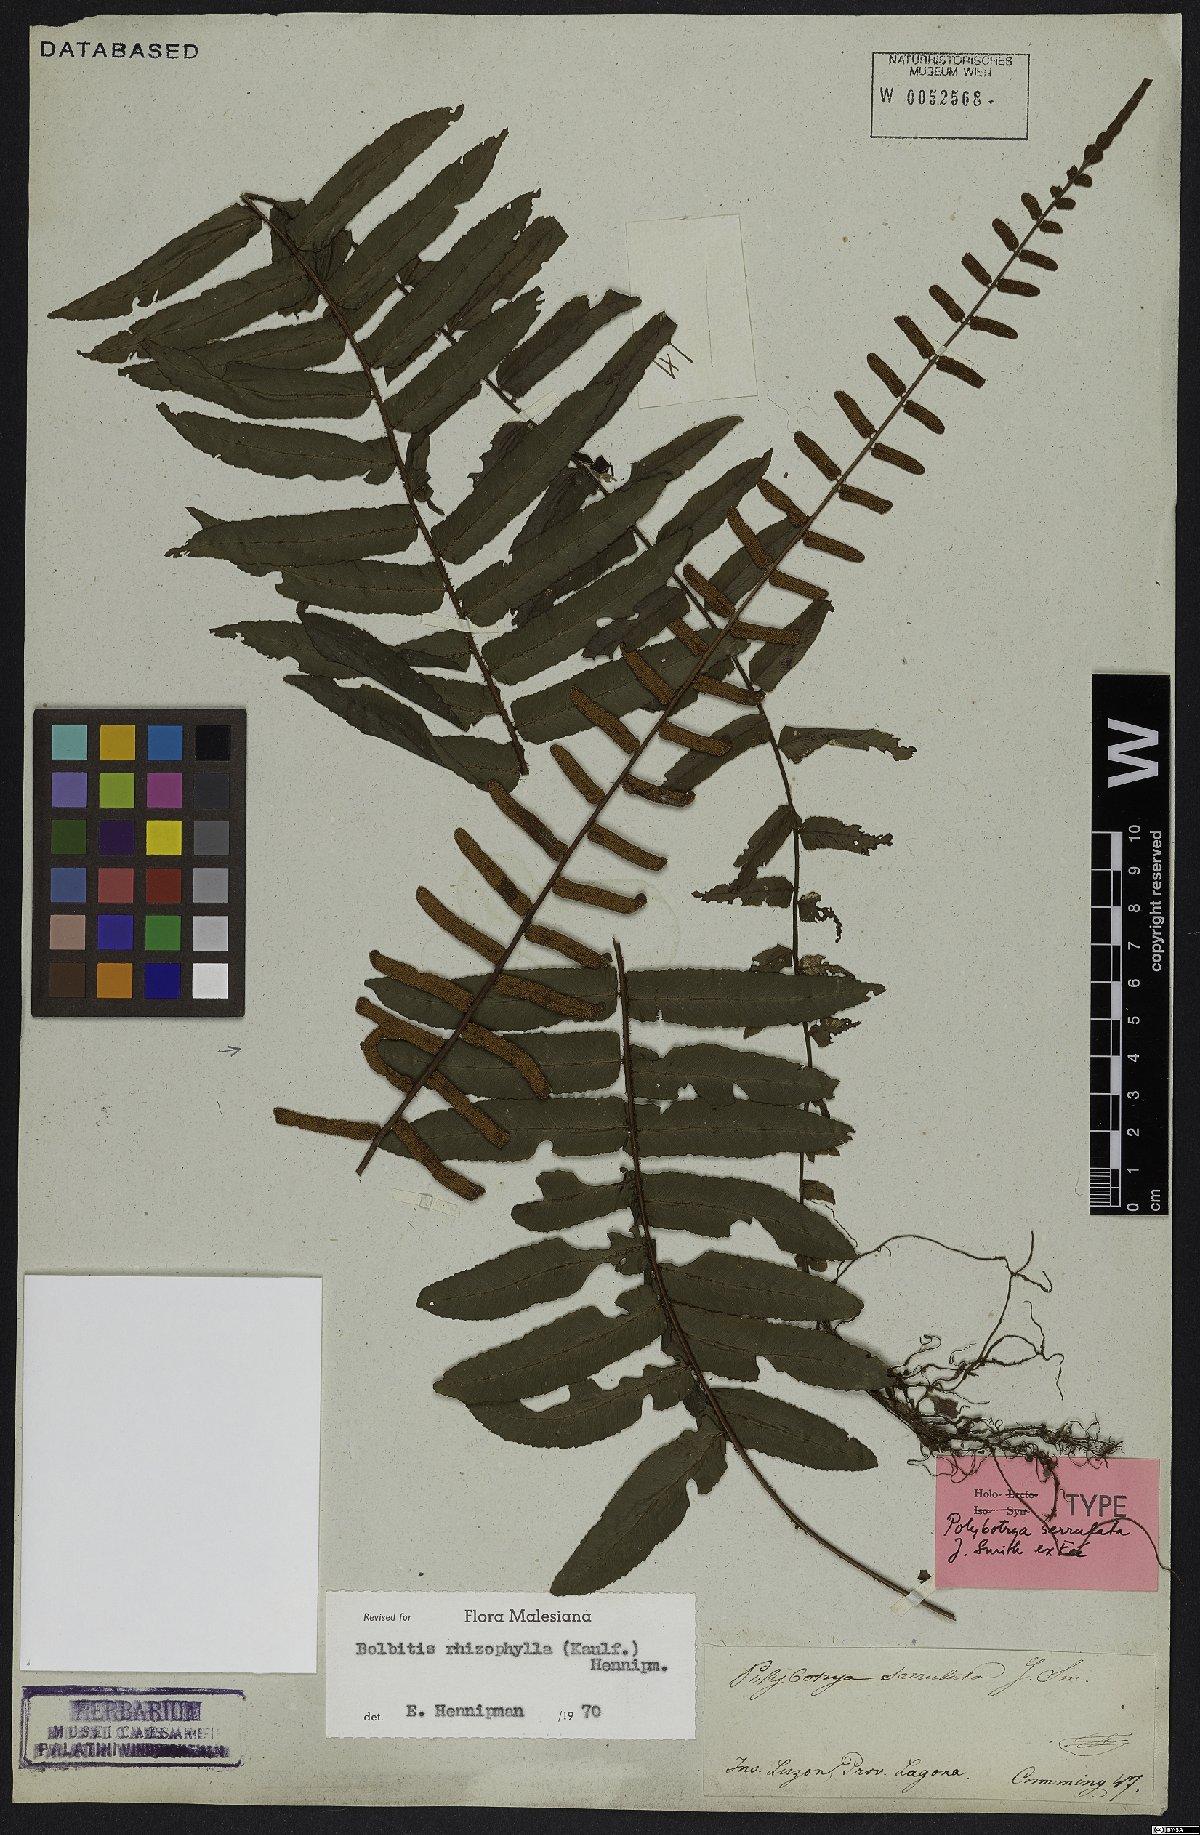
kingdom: Plantae
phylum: Tracheophyta
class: Polypodiopsida
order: Polypodiales
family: Dryopteridaceae
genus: Bolbitis
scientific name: Bolbitis rhizophylla
